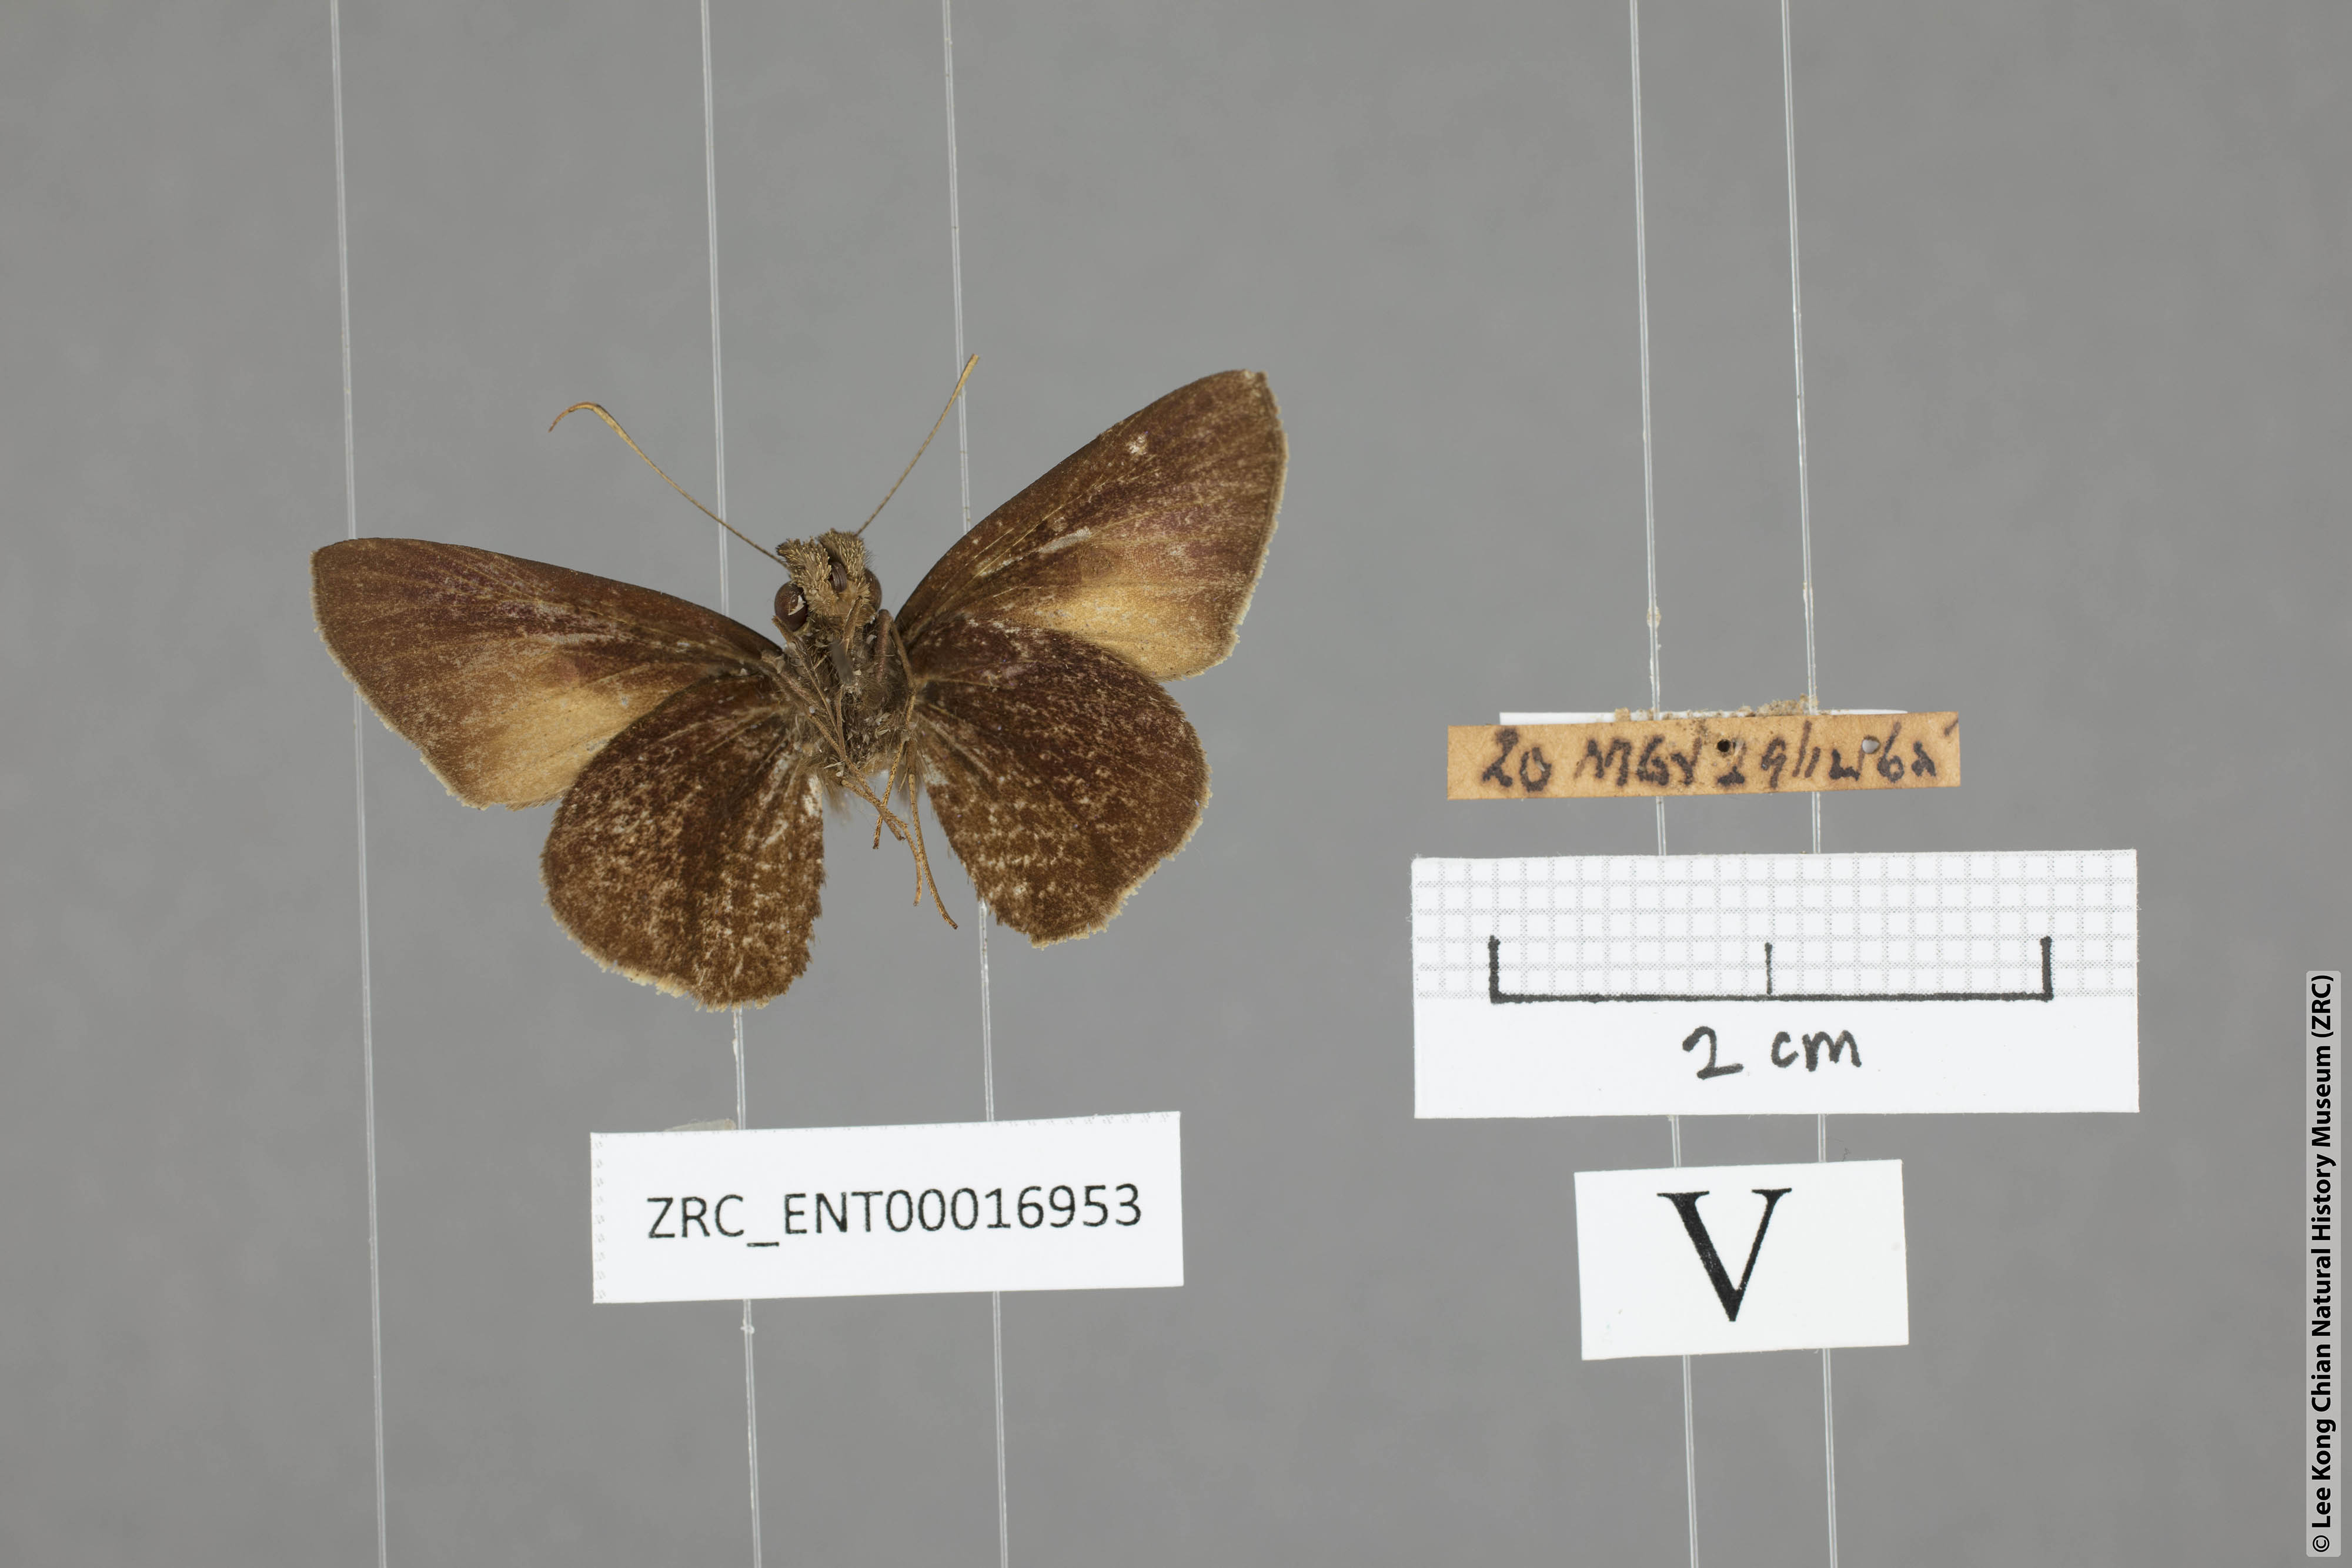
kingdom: Animalia
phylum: Arthropoda
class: Insecta
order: Lepidoptera
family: Hesperiidae
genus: Ge
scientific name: Ge
